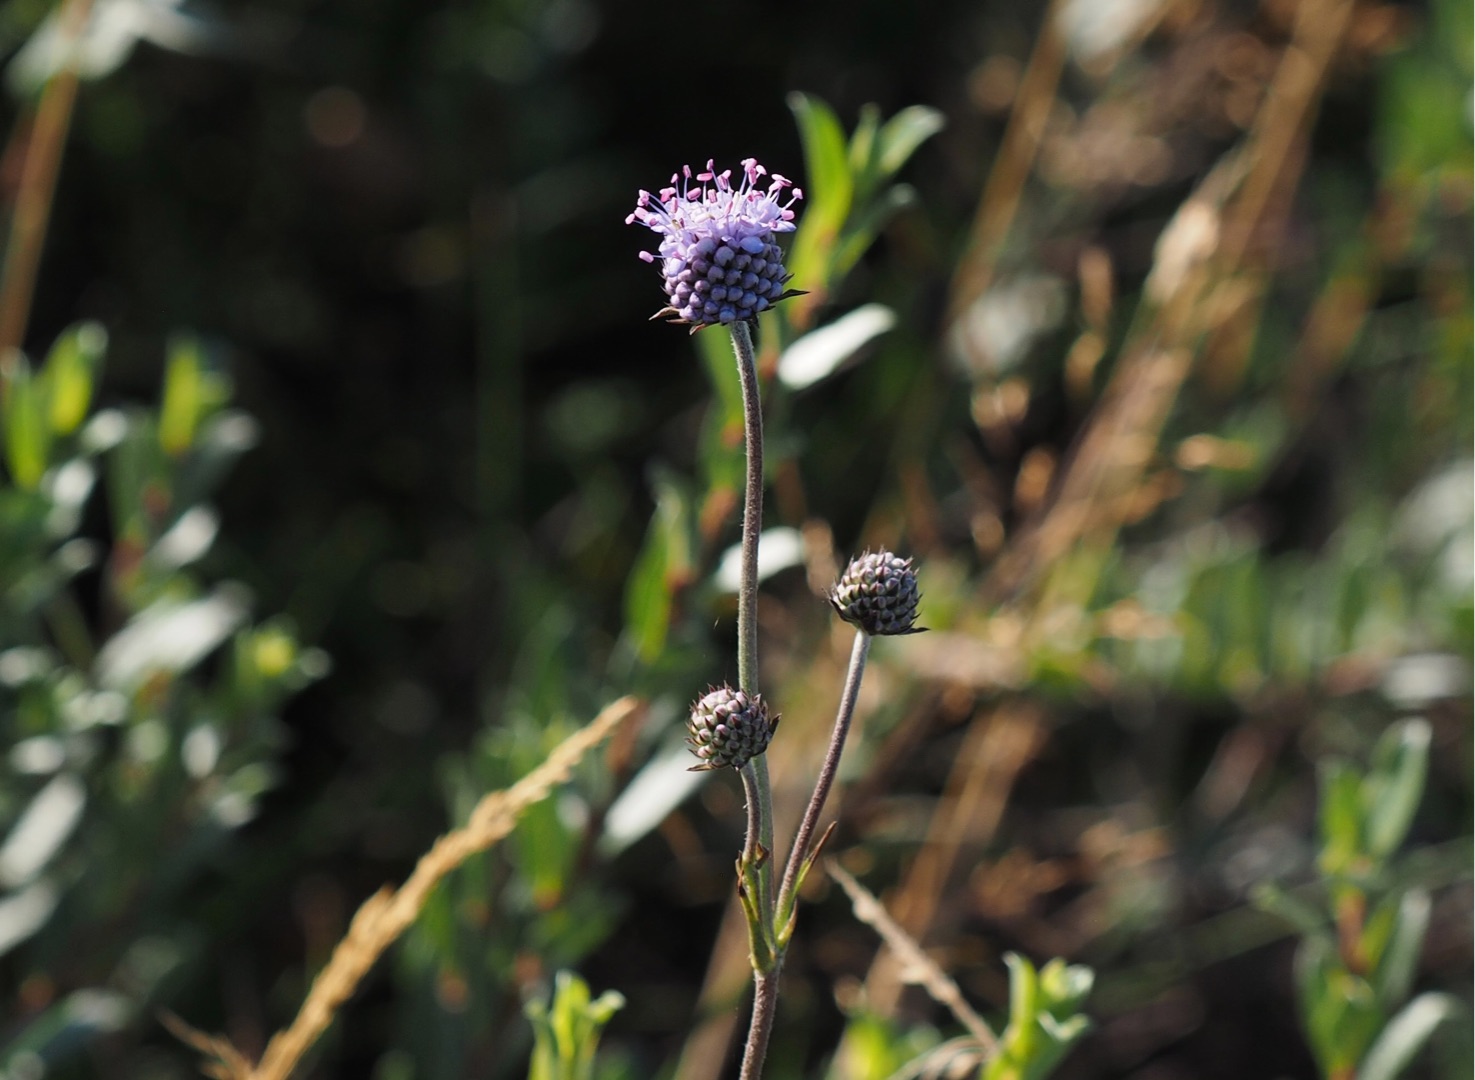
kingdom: Plantae
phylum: Tracheophyta
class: Magnoliopsida
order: Dipsacales
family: Caprifoliaceae
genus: Succisa
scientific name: Succisa pratensis
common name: Djævelsbid
